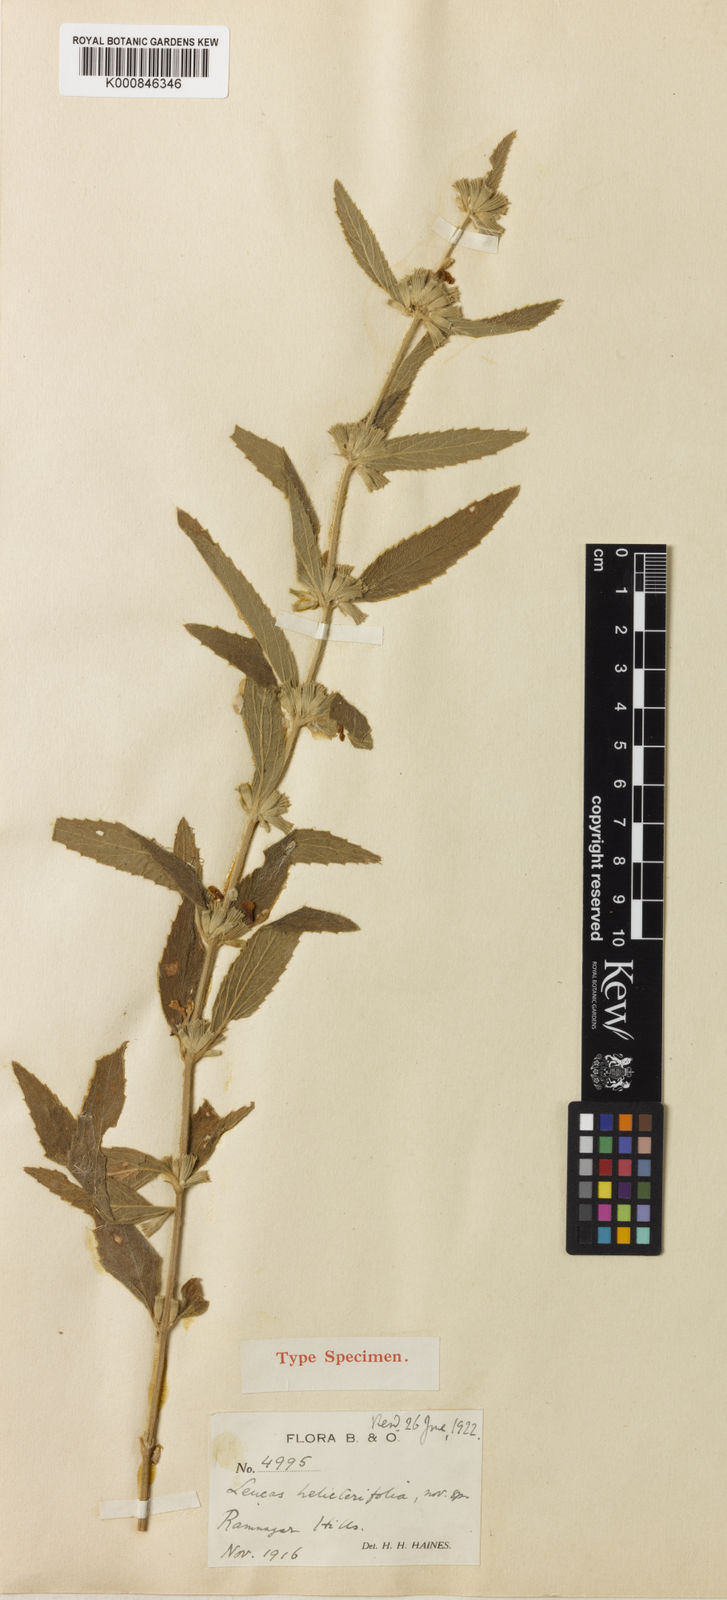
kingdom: Plantae
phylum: Tracheophyta
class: Magnoliopsida
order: Lamiales
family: Lamiaceae
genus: Leucas
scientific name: Leucas helicterifolia
